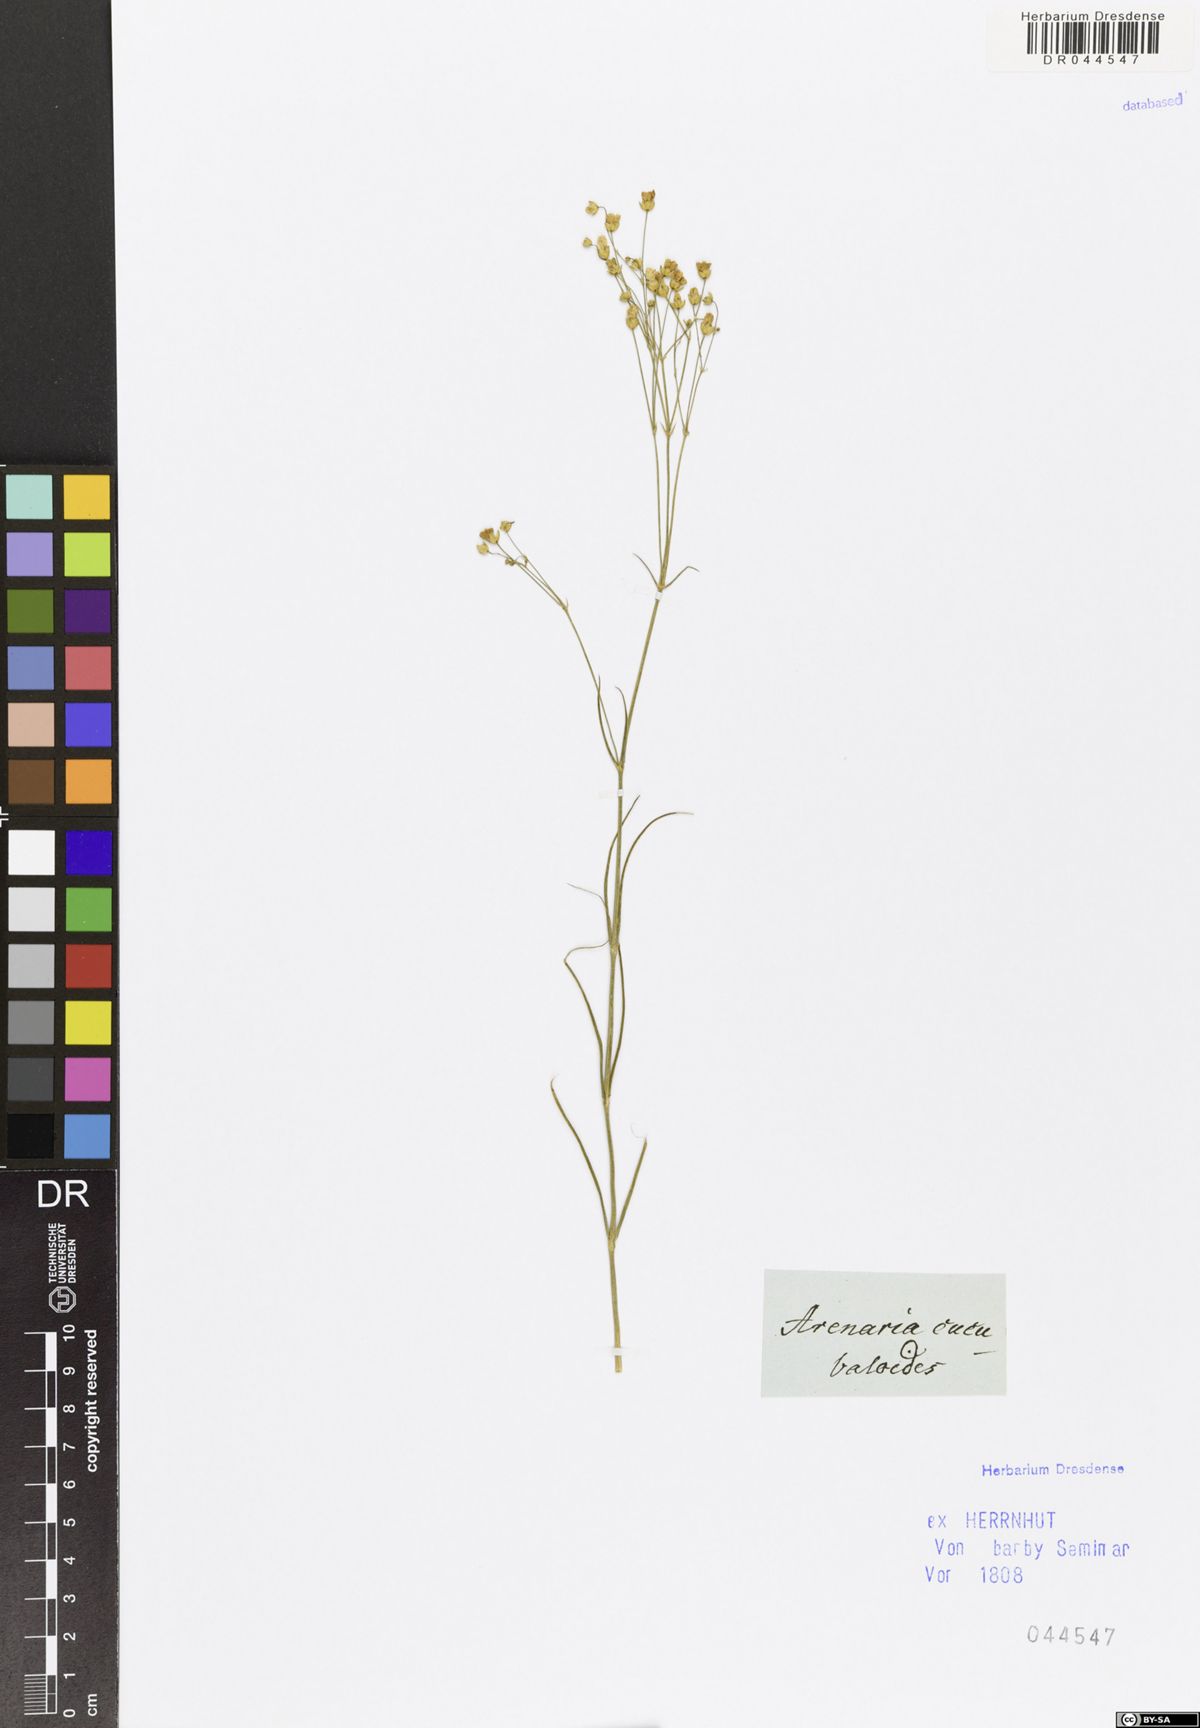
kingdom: Plantae
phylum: Tracheophyta
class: Magnoliopsida
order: Caryophyllales
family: Caryophyllaceae
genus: Eremogone
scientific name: Eremogone cucubaloides
